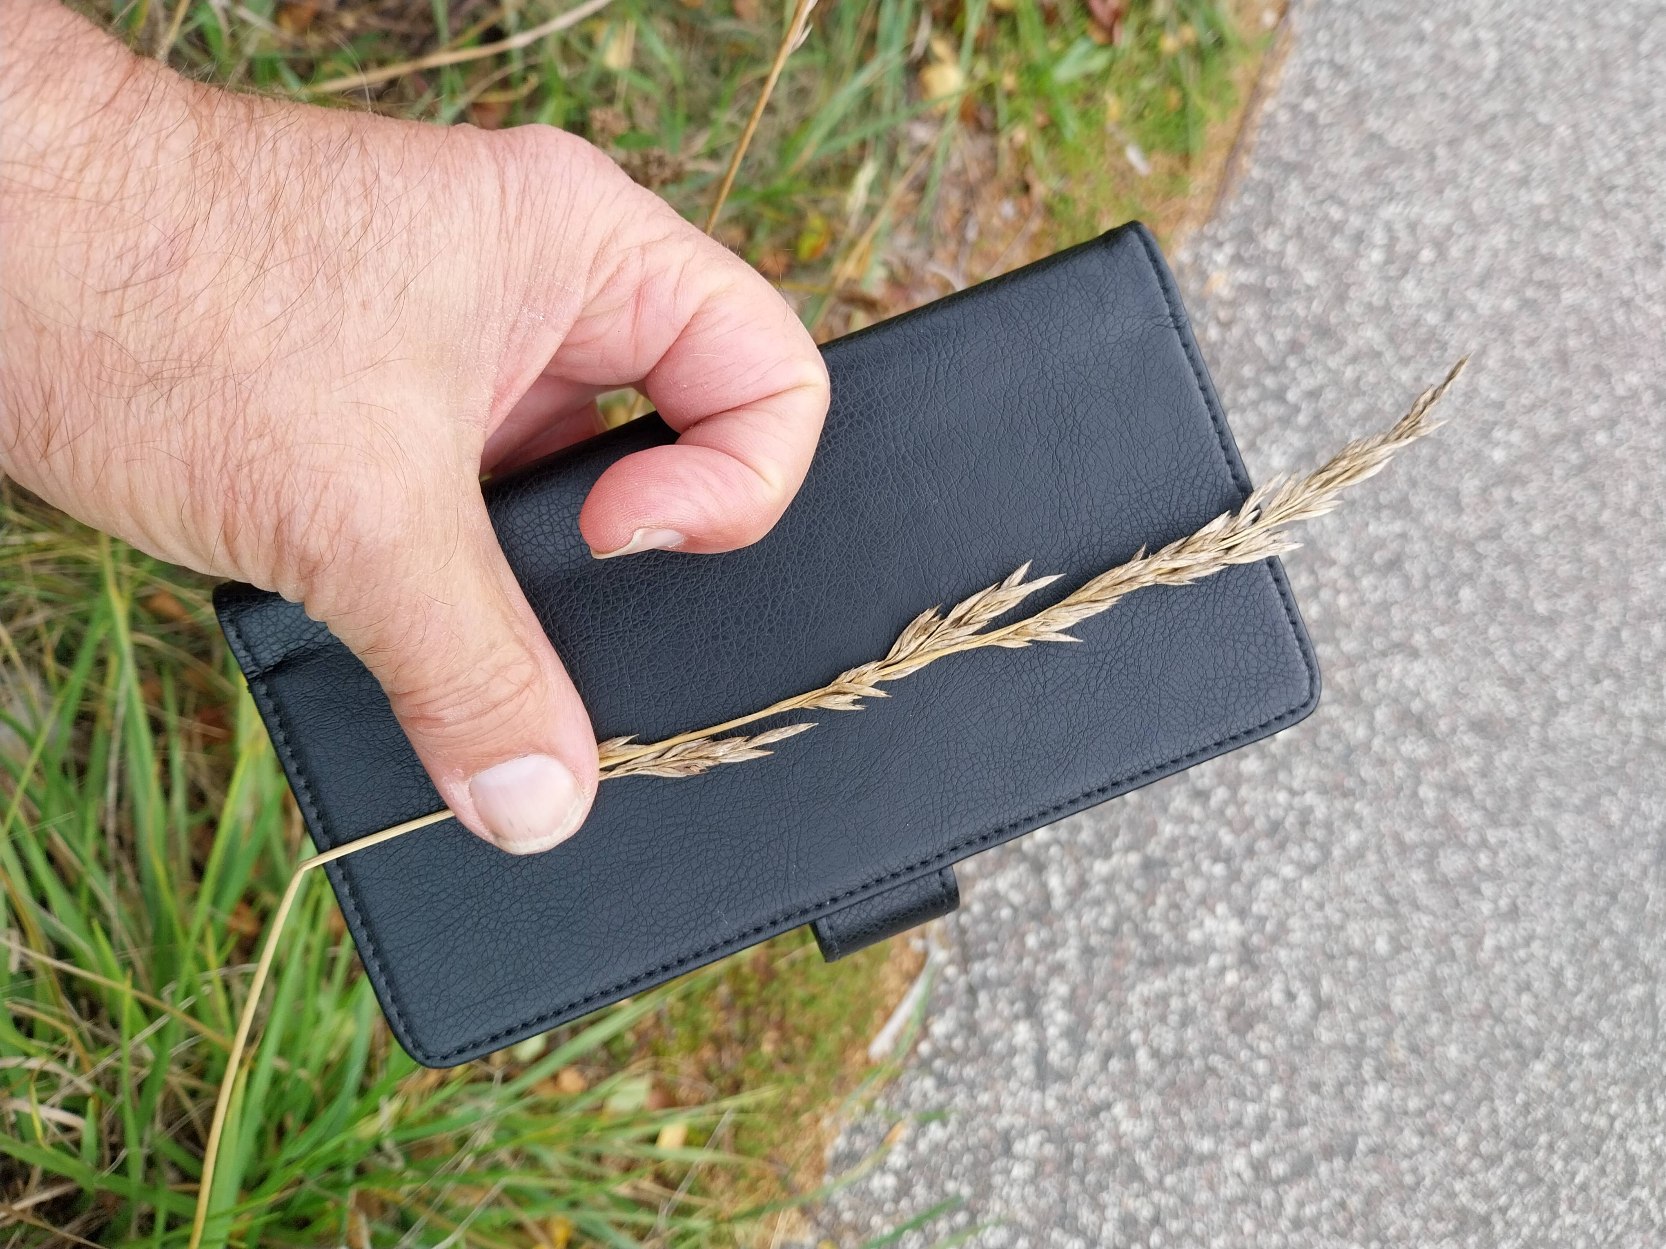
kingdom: Plantae
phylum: Tracheophyta
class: Liliopsida
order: Poales
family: Poaceae
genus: Lolium
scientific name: Lolium arundinaceum
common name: Strand-svingel
